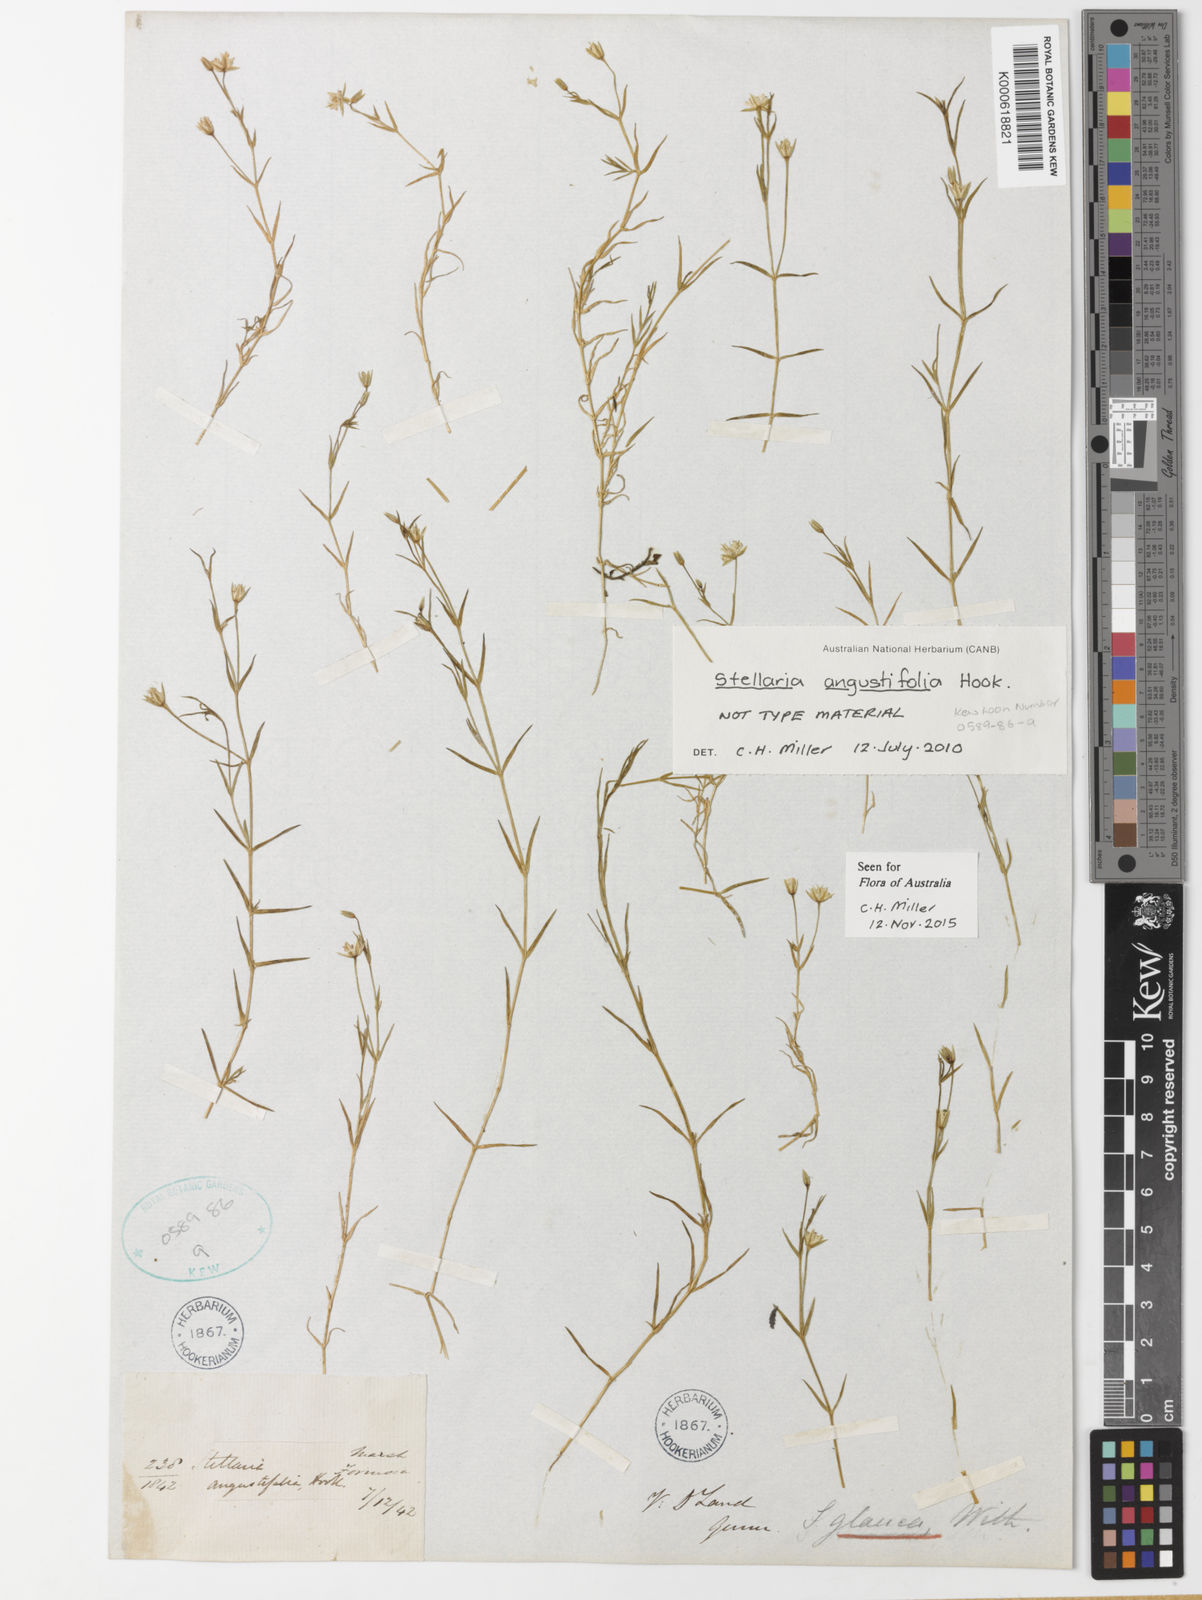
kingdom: Plantae
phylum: Tracheophyta
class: Magnoliopsida
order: Caryophyllales
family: Caryophyllaceae
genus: Stellaria
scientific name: Stellaria palustris
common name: Marsh stitchwort
